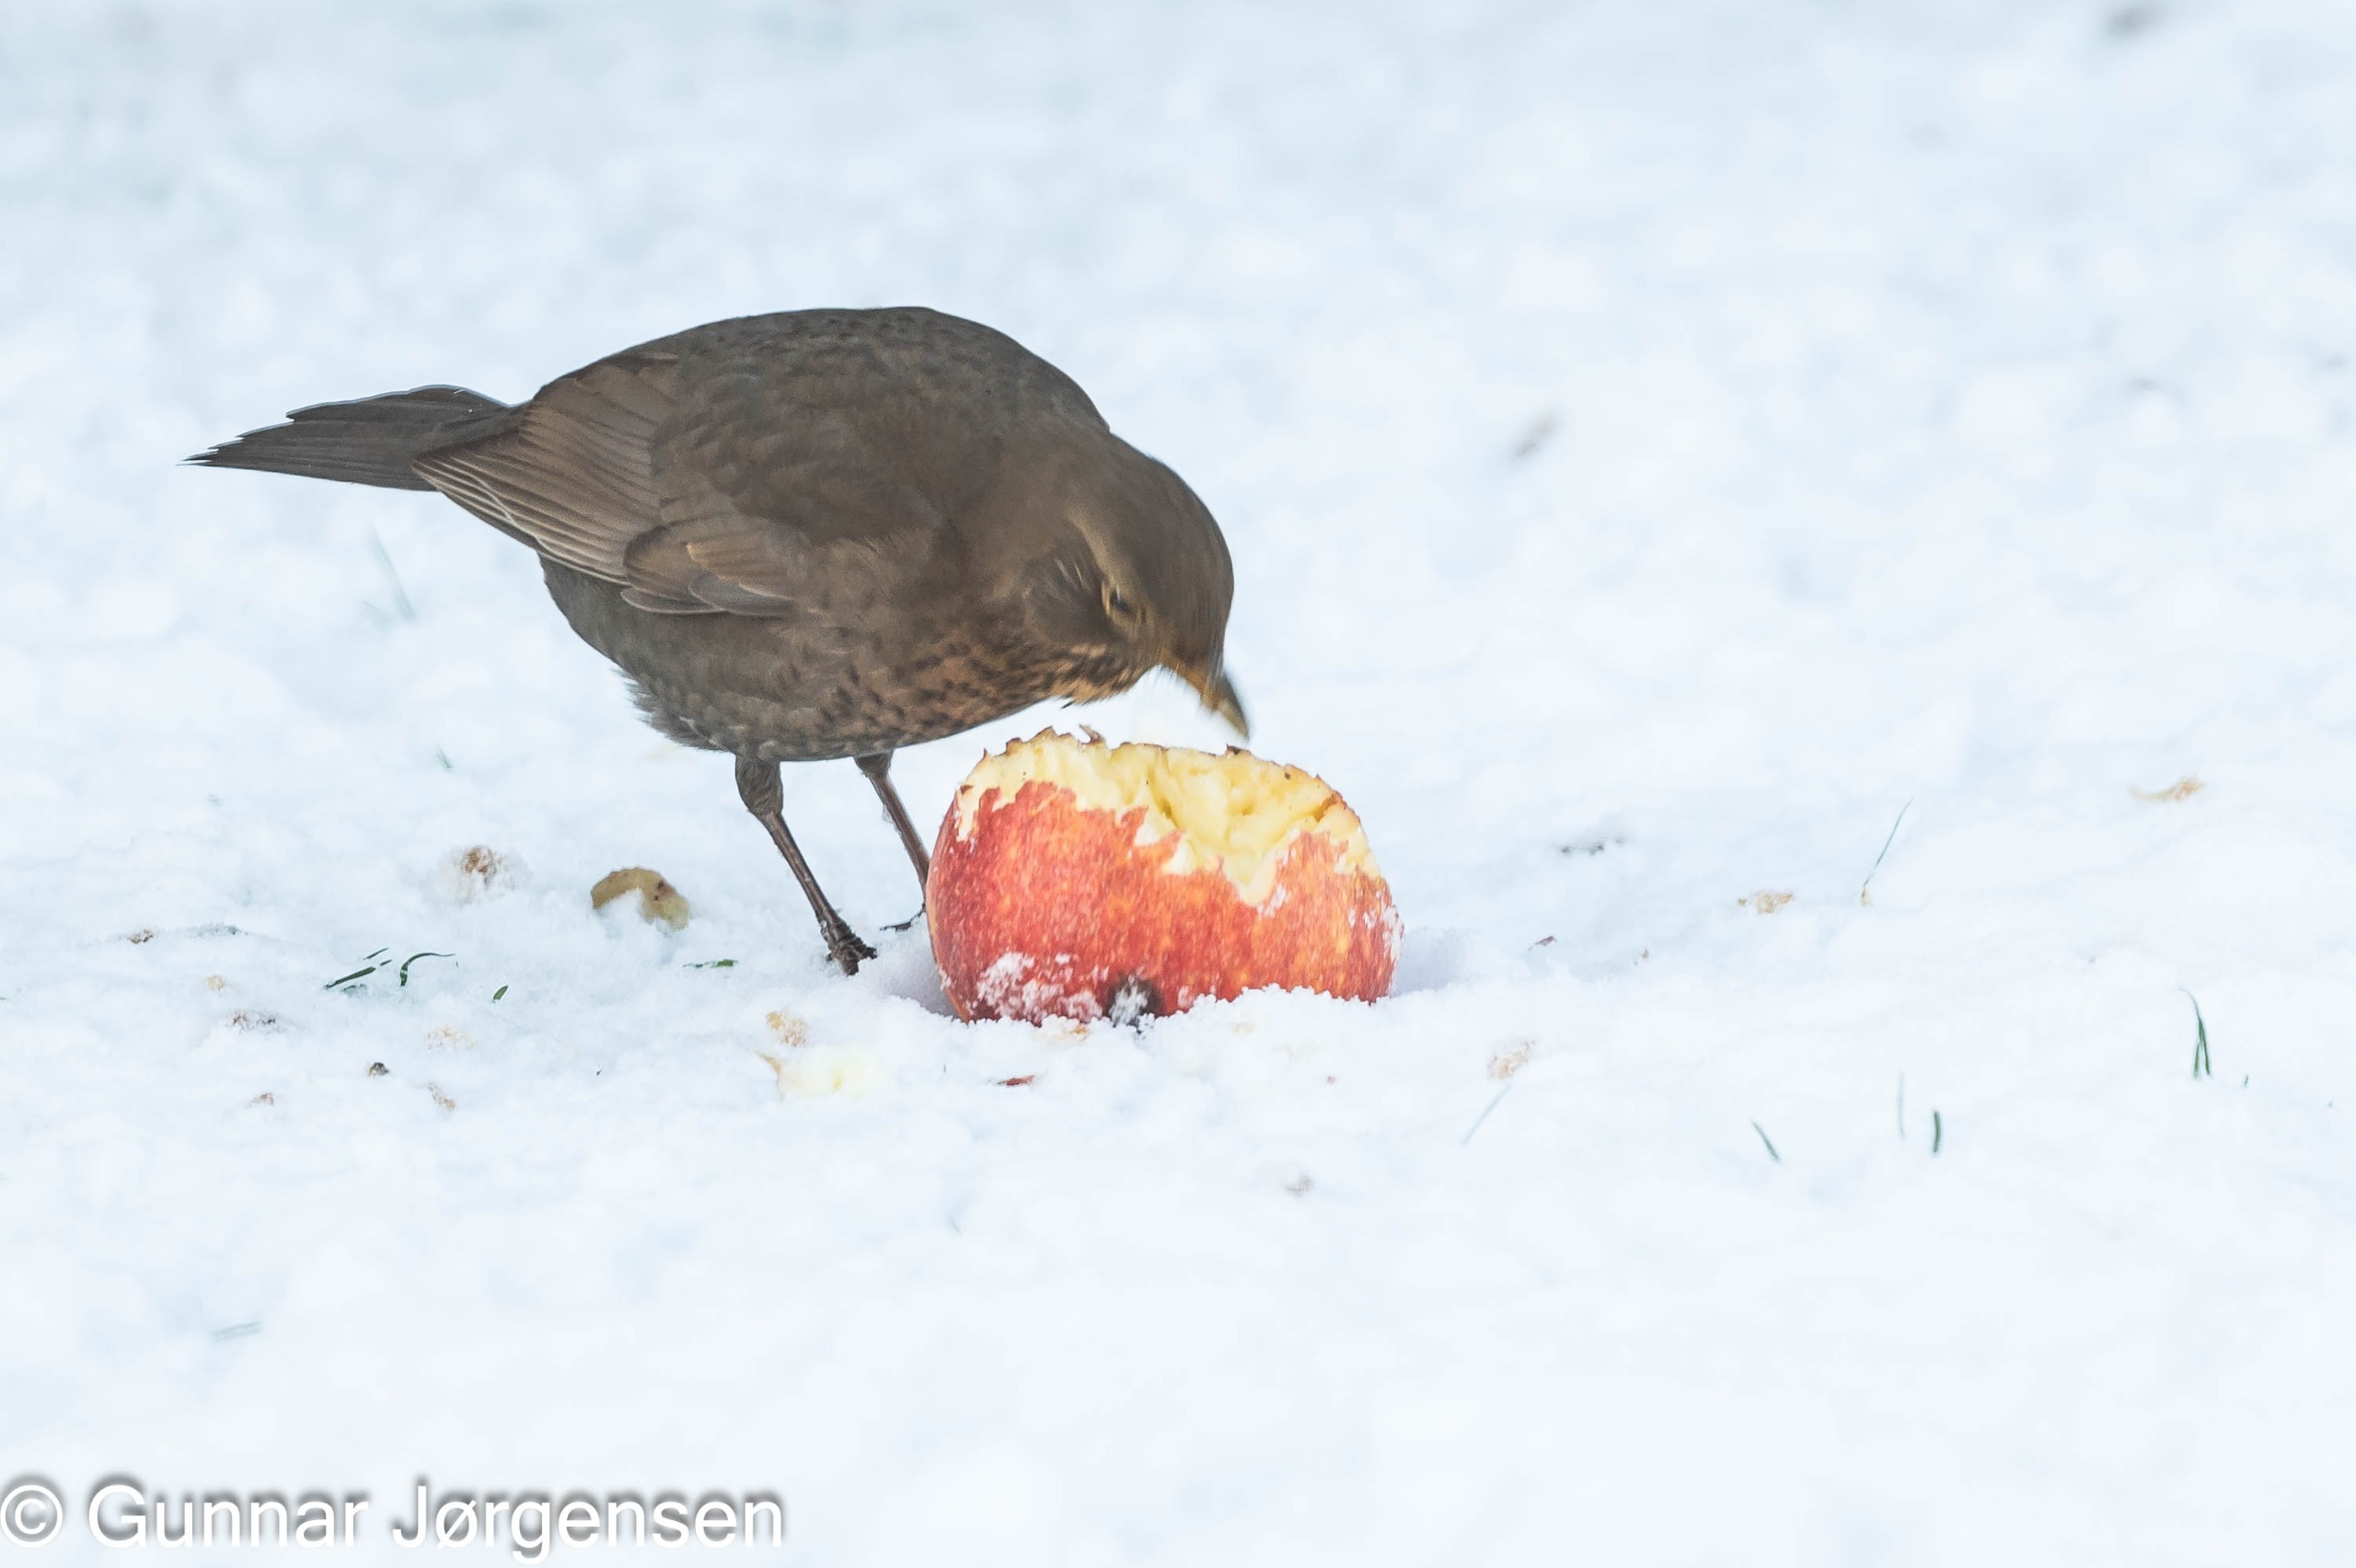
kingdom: Animalia
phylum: Chordata
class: Aves
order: Passeriformes
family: Turdidae
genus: Turdus
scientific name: Turdus merula
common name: Solsort
